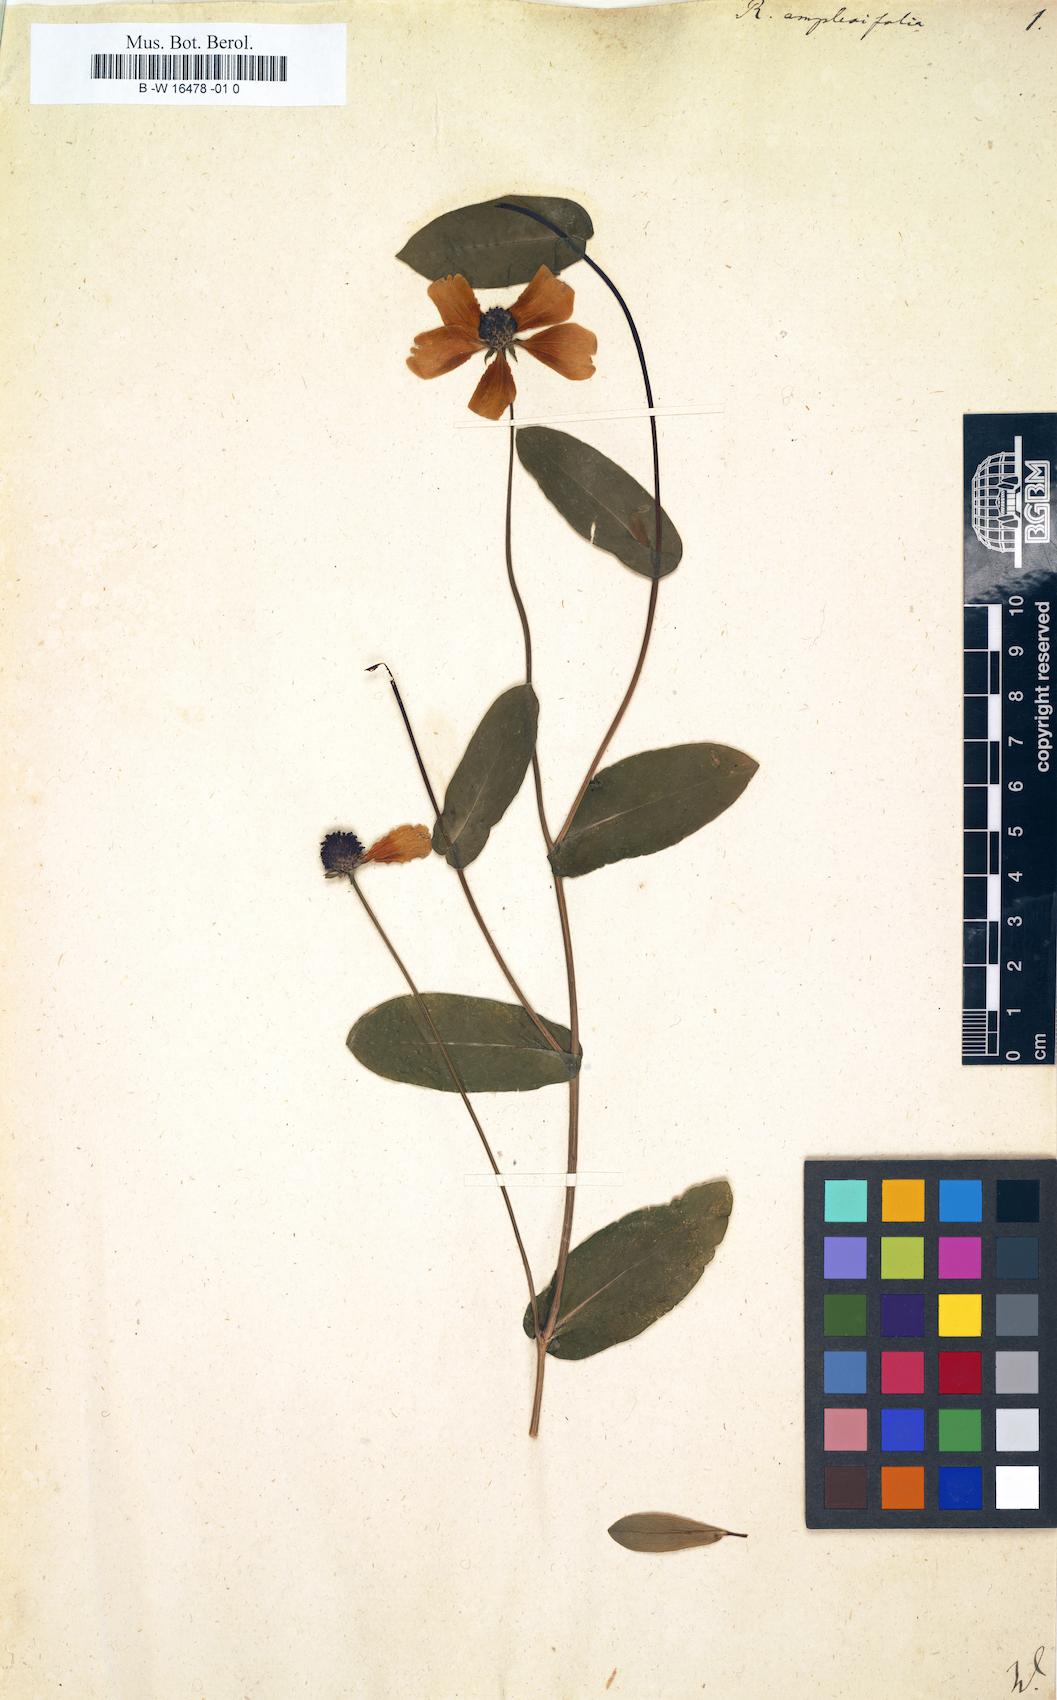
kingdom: Plantae
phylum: Tracheophyta
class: Magnoliopsida
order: Asterales
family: Asteraceae
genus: Rudbeckia
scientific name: Rudbeckia amplexifolia
